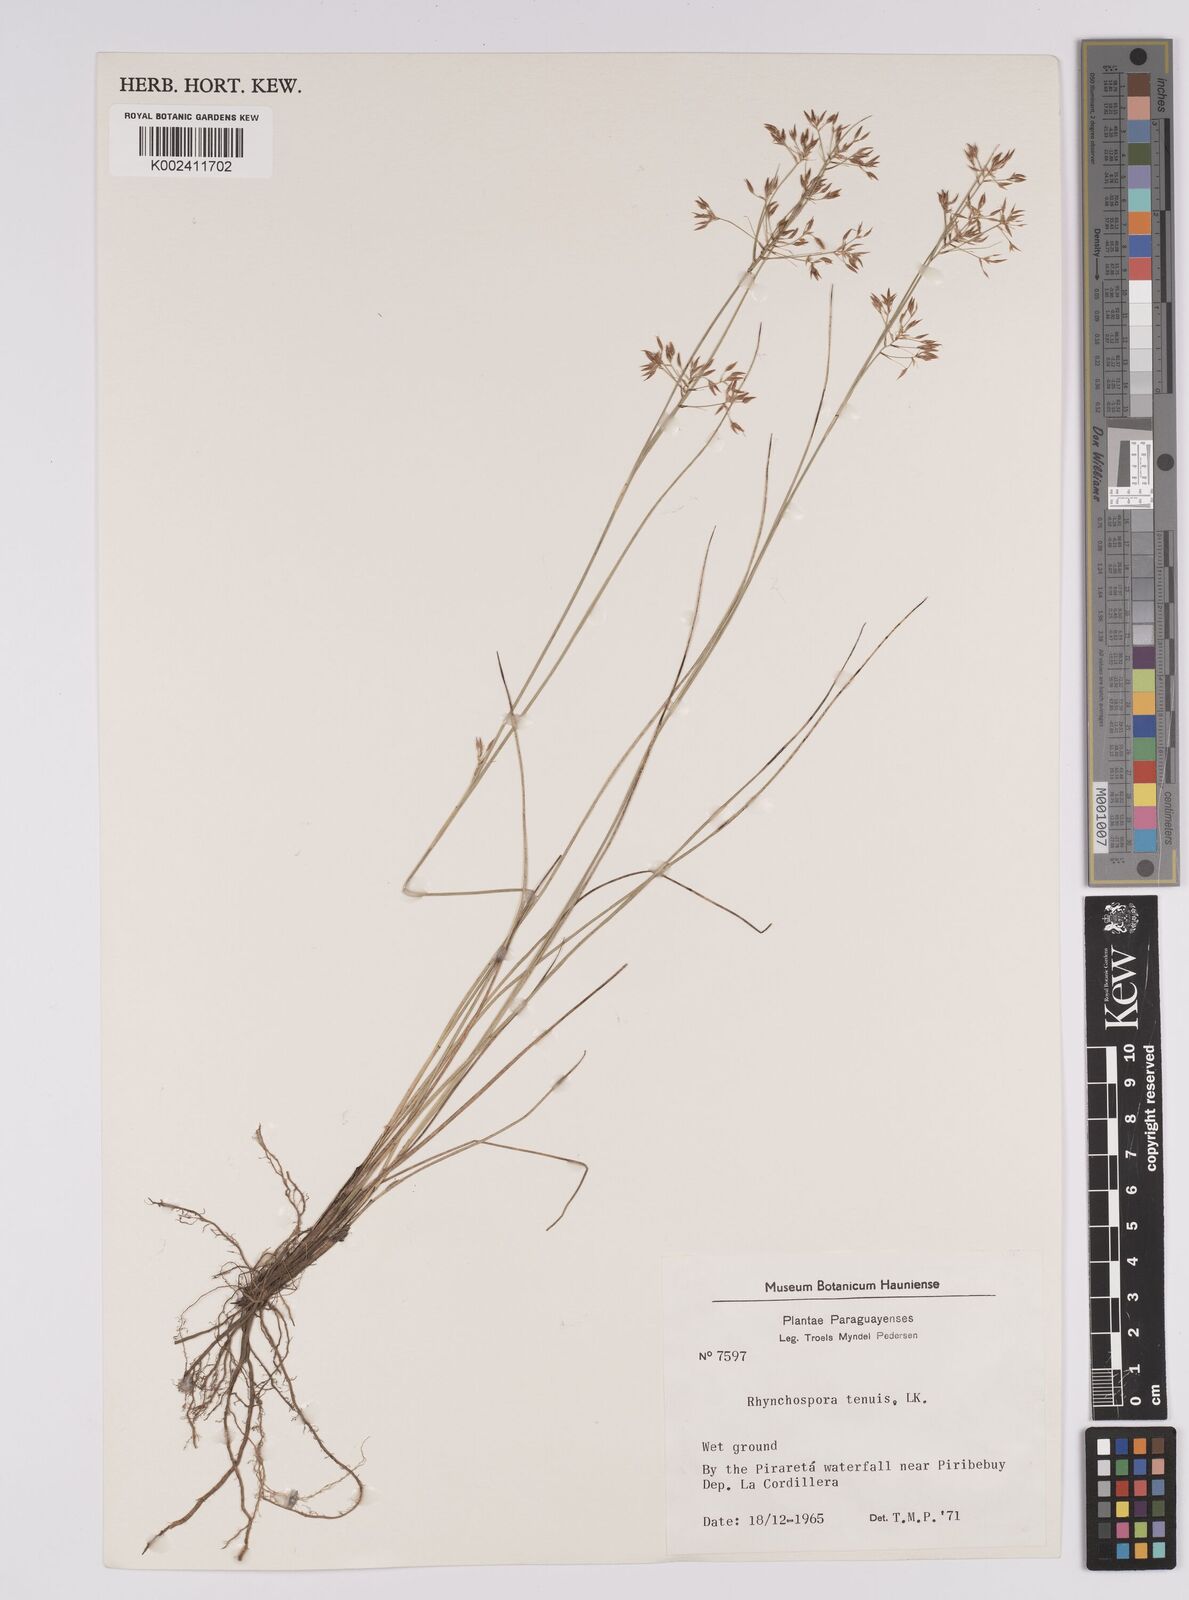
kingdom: Plantae
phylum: Tracheophyta
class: Liliopsida
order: Poales
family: Cyperaceae
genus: Rhynchospora
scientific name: Rhynchospora tenuis
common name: Quill beaksedge
